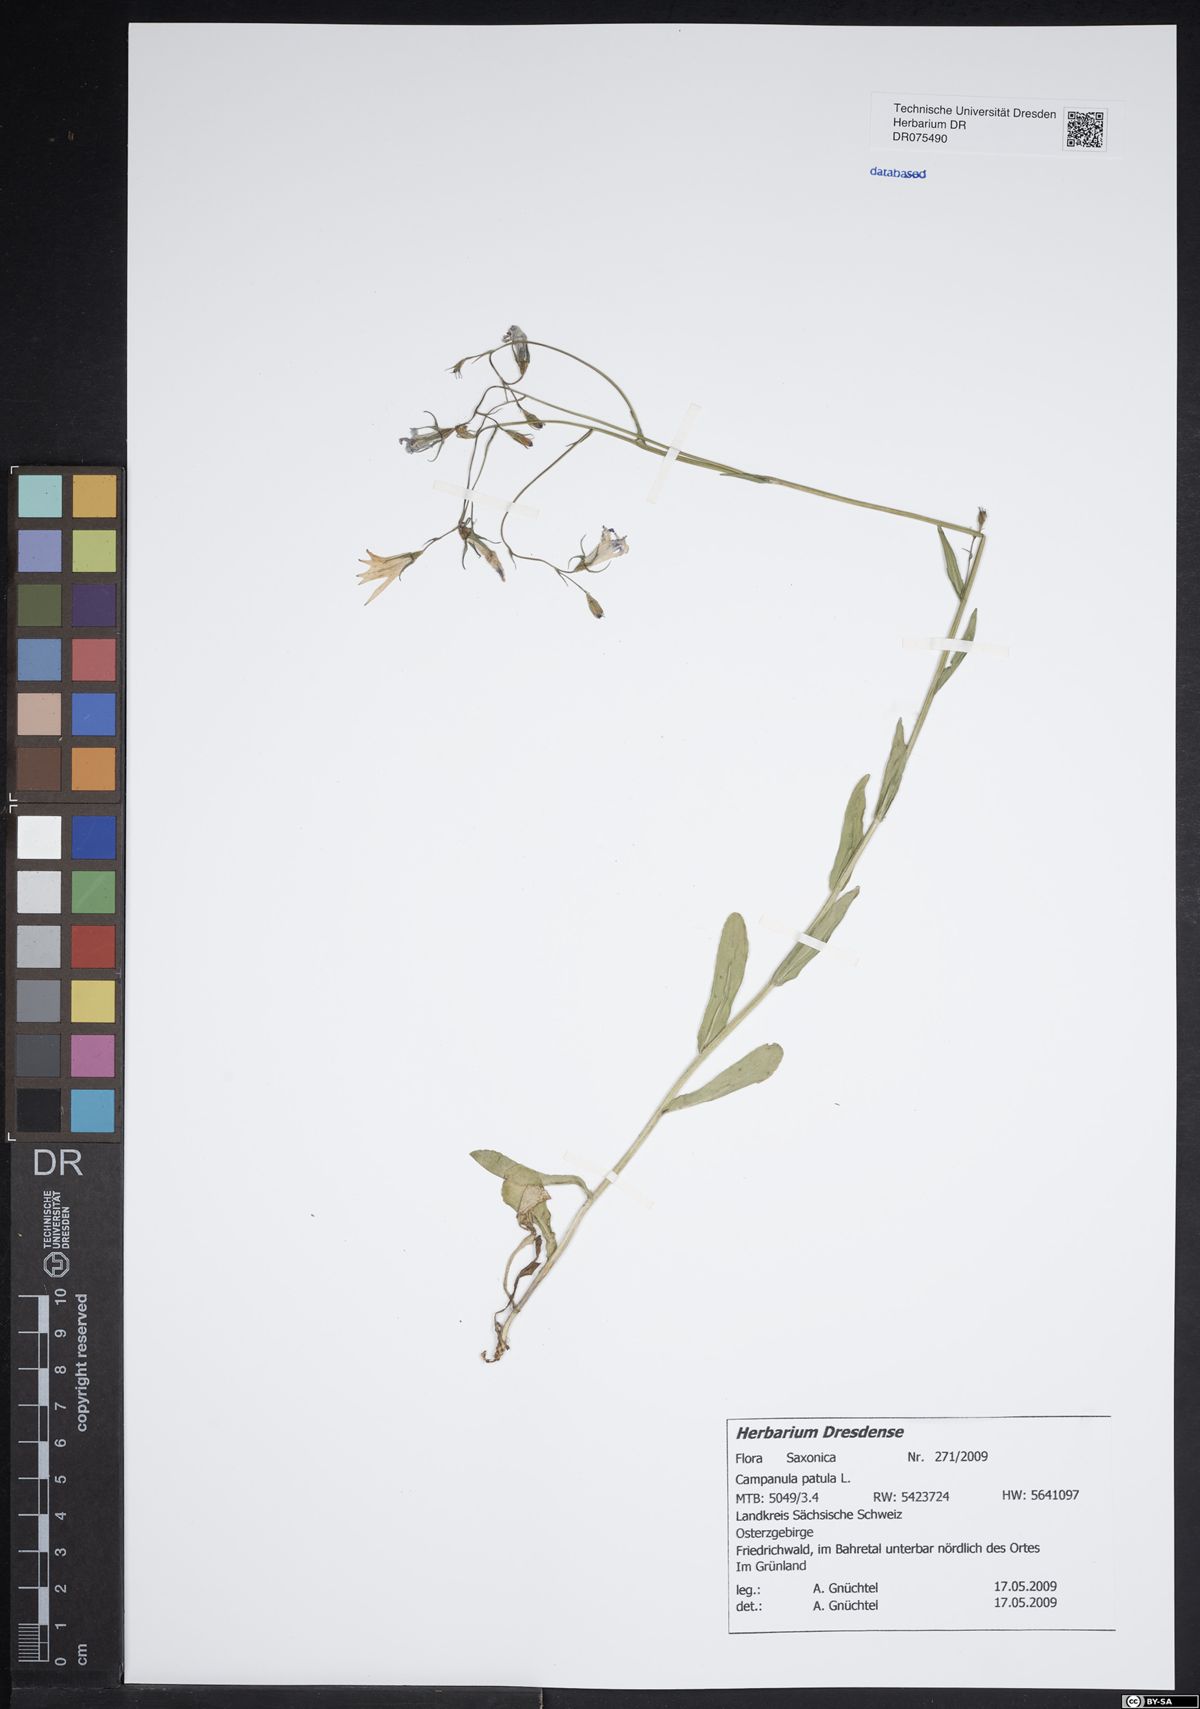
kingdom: Plantae
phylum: Tracheophyta
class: Magnoliopsida
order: Asterales
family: Campanulaceae
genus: Campanula
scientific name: Campanula patula
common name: Spreading bellflower
